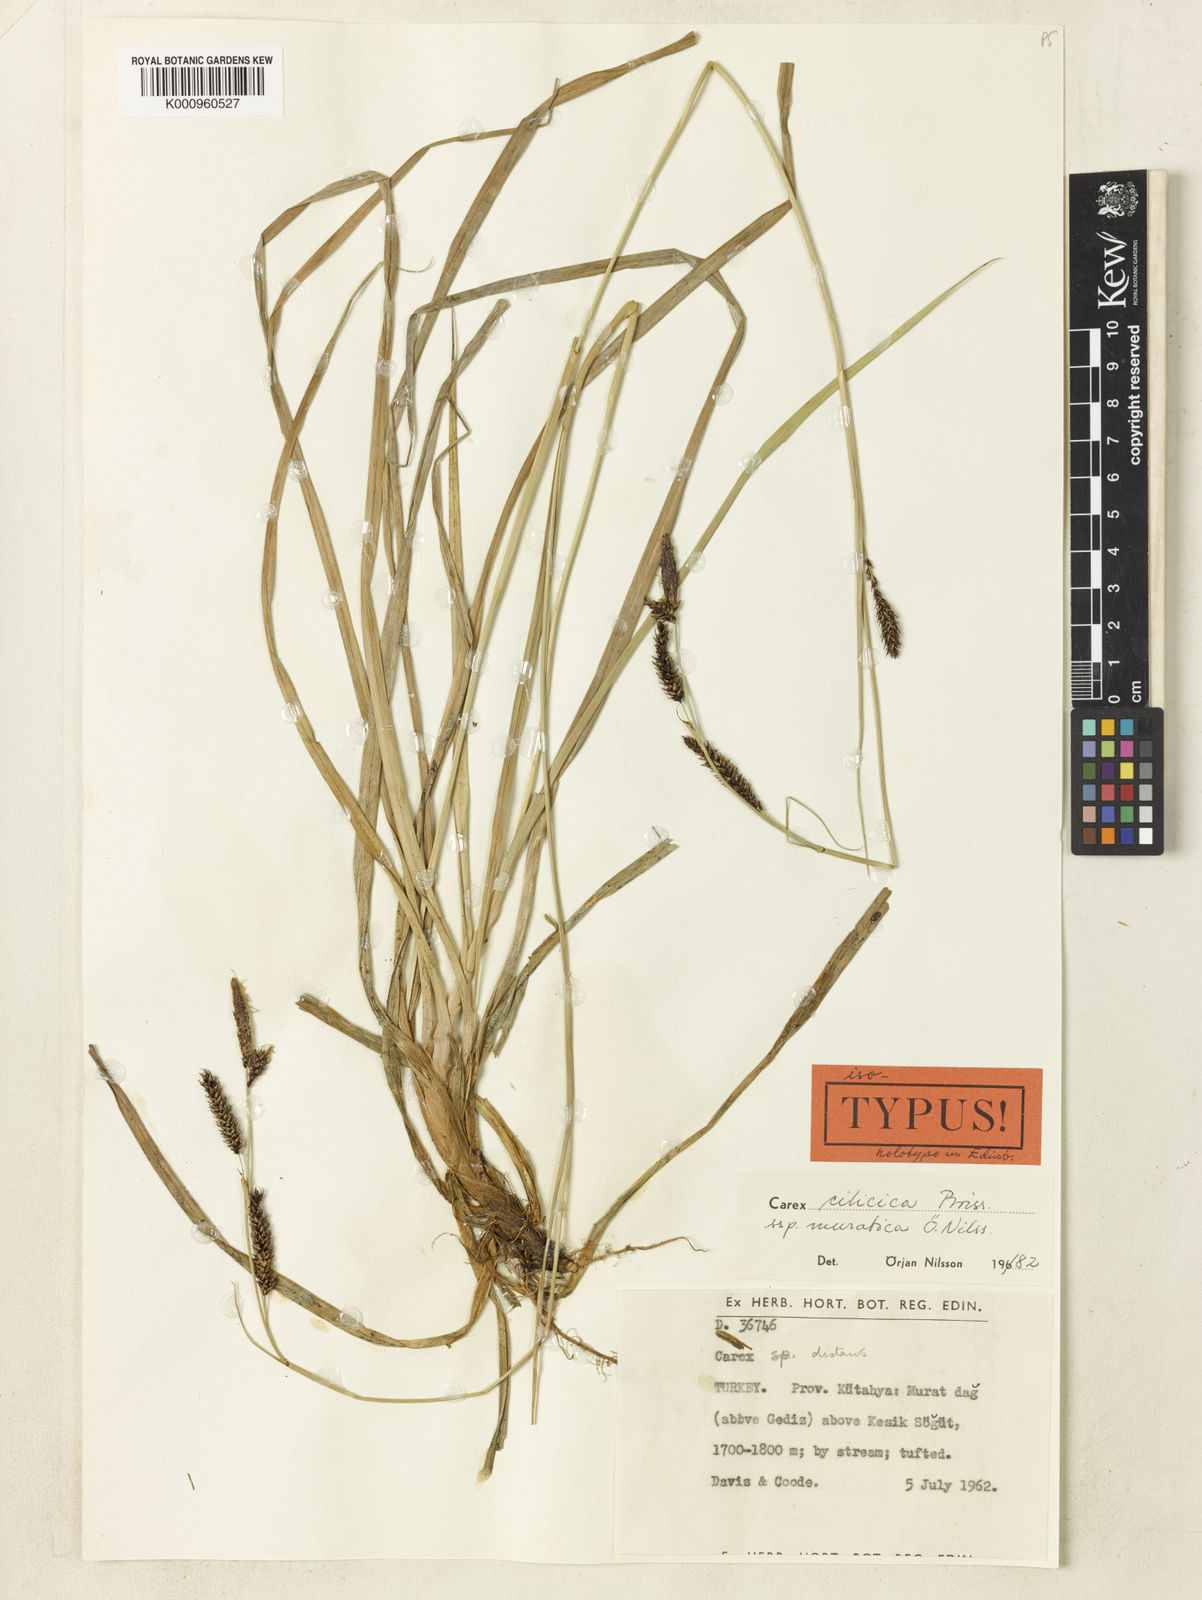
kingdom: Plantae
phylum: Tracheophyta
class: Liliopsida
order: Poales
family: Cyperaceae
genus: Carex
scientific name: Carex cilicica
